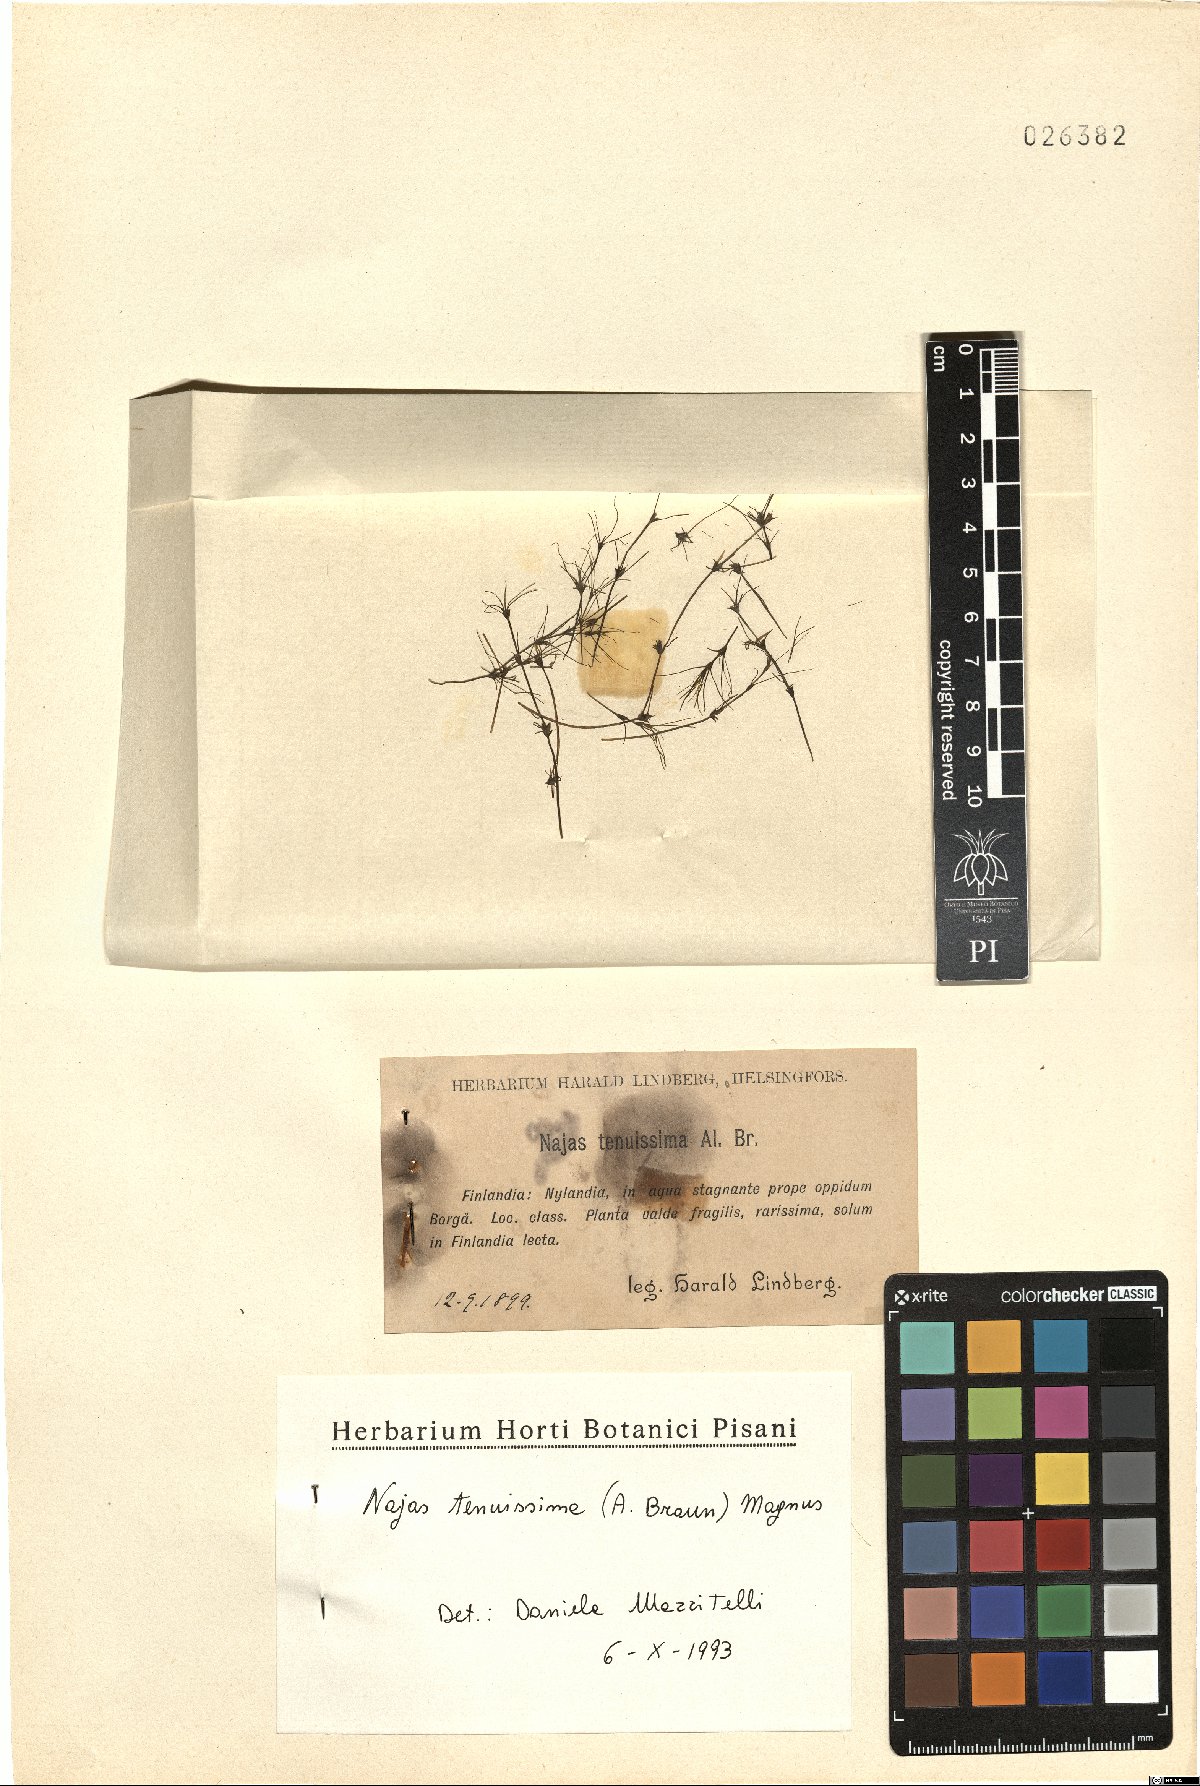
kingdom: Plantae
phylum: Tracheophyta
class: Liliopsida
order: Alismatales
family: Hydrocharitaceae
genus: Najas
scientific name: Najas tenuissima
